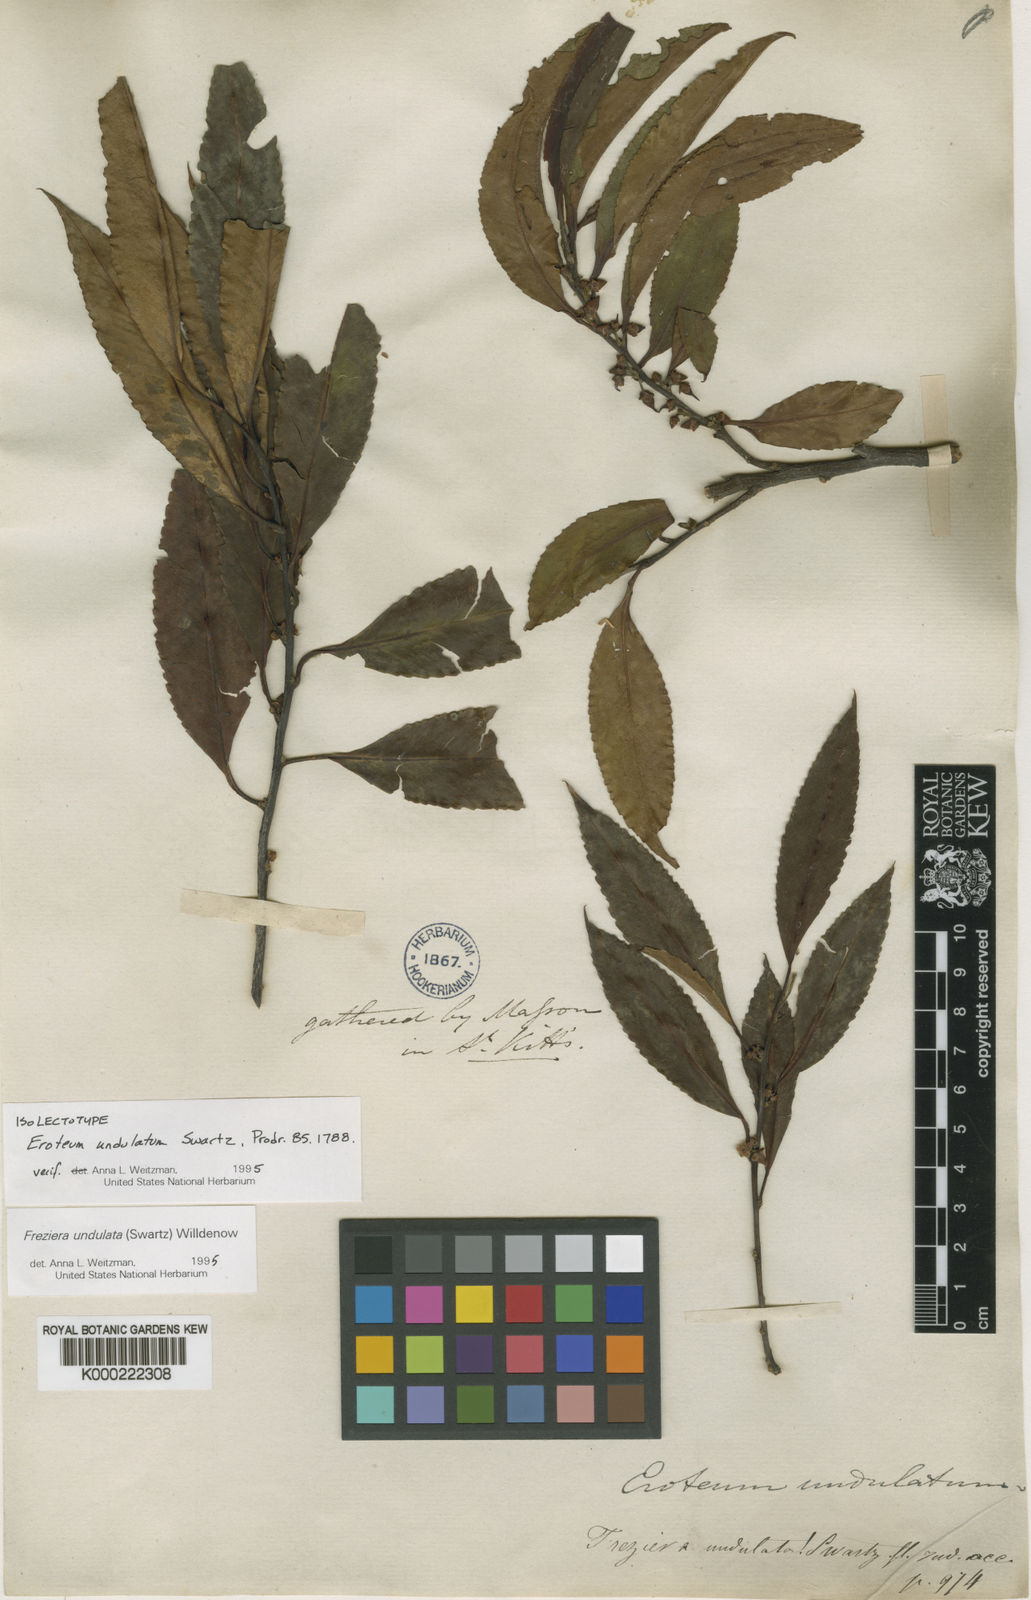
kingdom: Plantae
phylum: Tracheophyta
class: Magnoliopsida
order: Ericales
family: Pentaphylacaceae
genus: Freziera
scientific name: Freziera undulata
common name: Mountain mahogany
